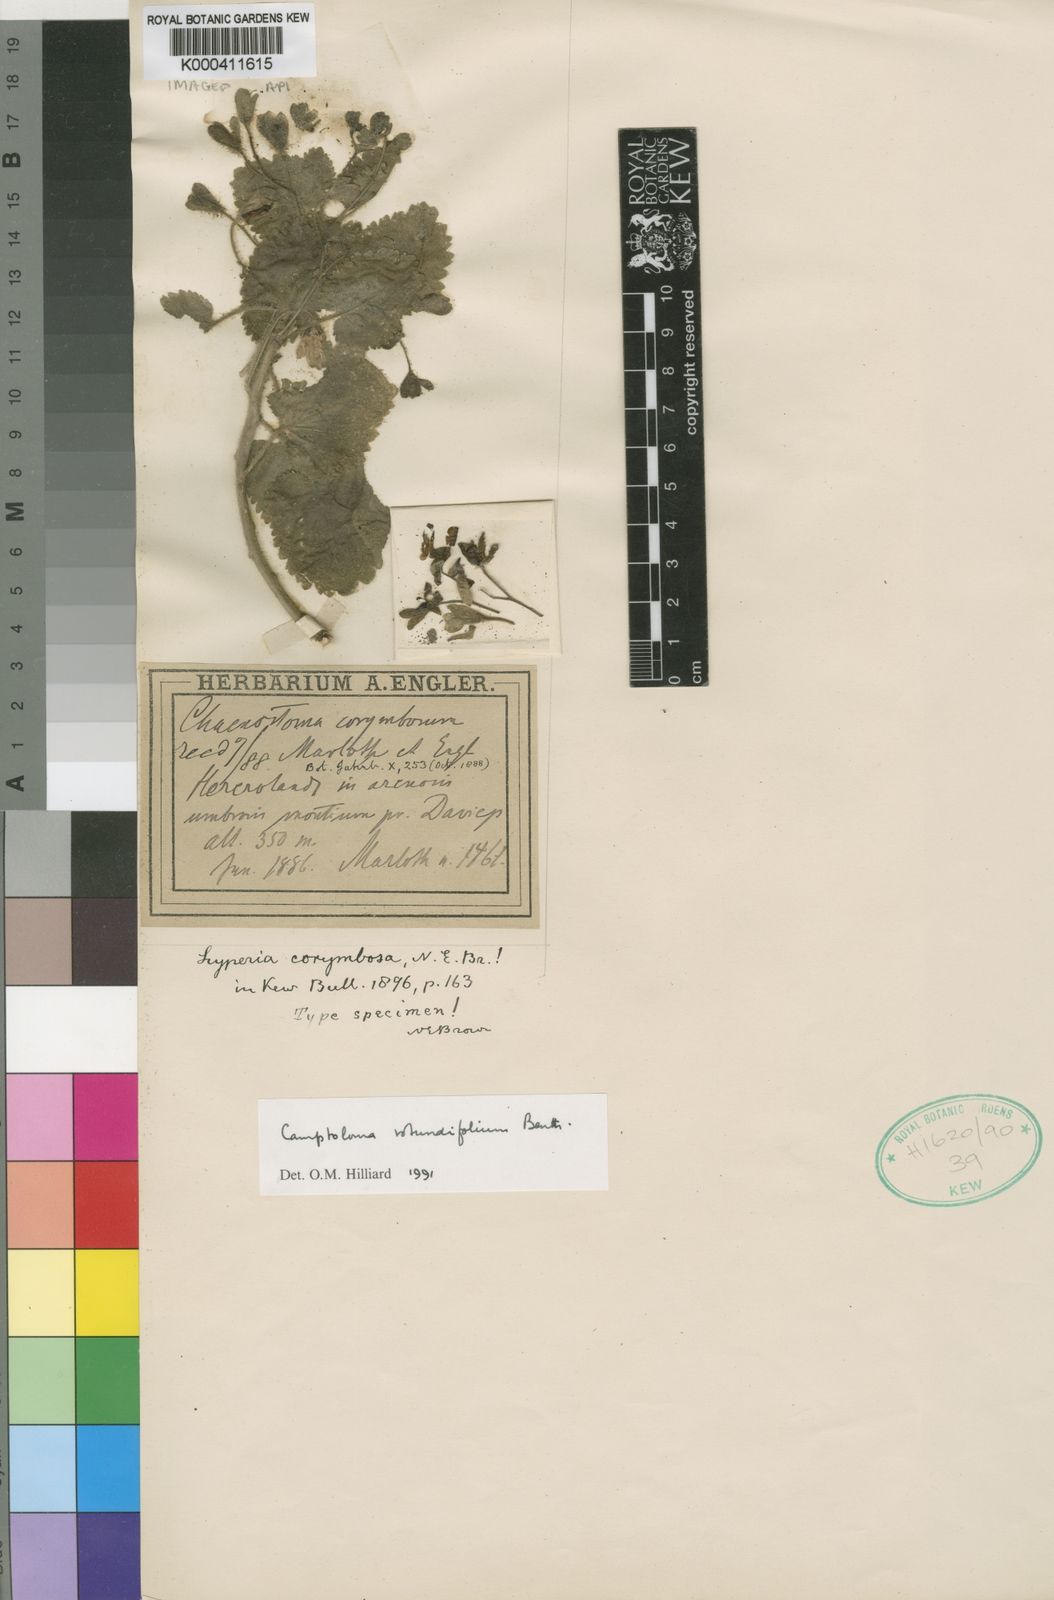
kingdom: Plantae
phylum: Tracheophyta
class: Magnoliopsida
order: Lamiales
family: Scrophulariaceae
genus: Camptoloma
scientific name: Camptoloma rotundifolium
